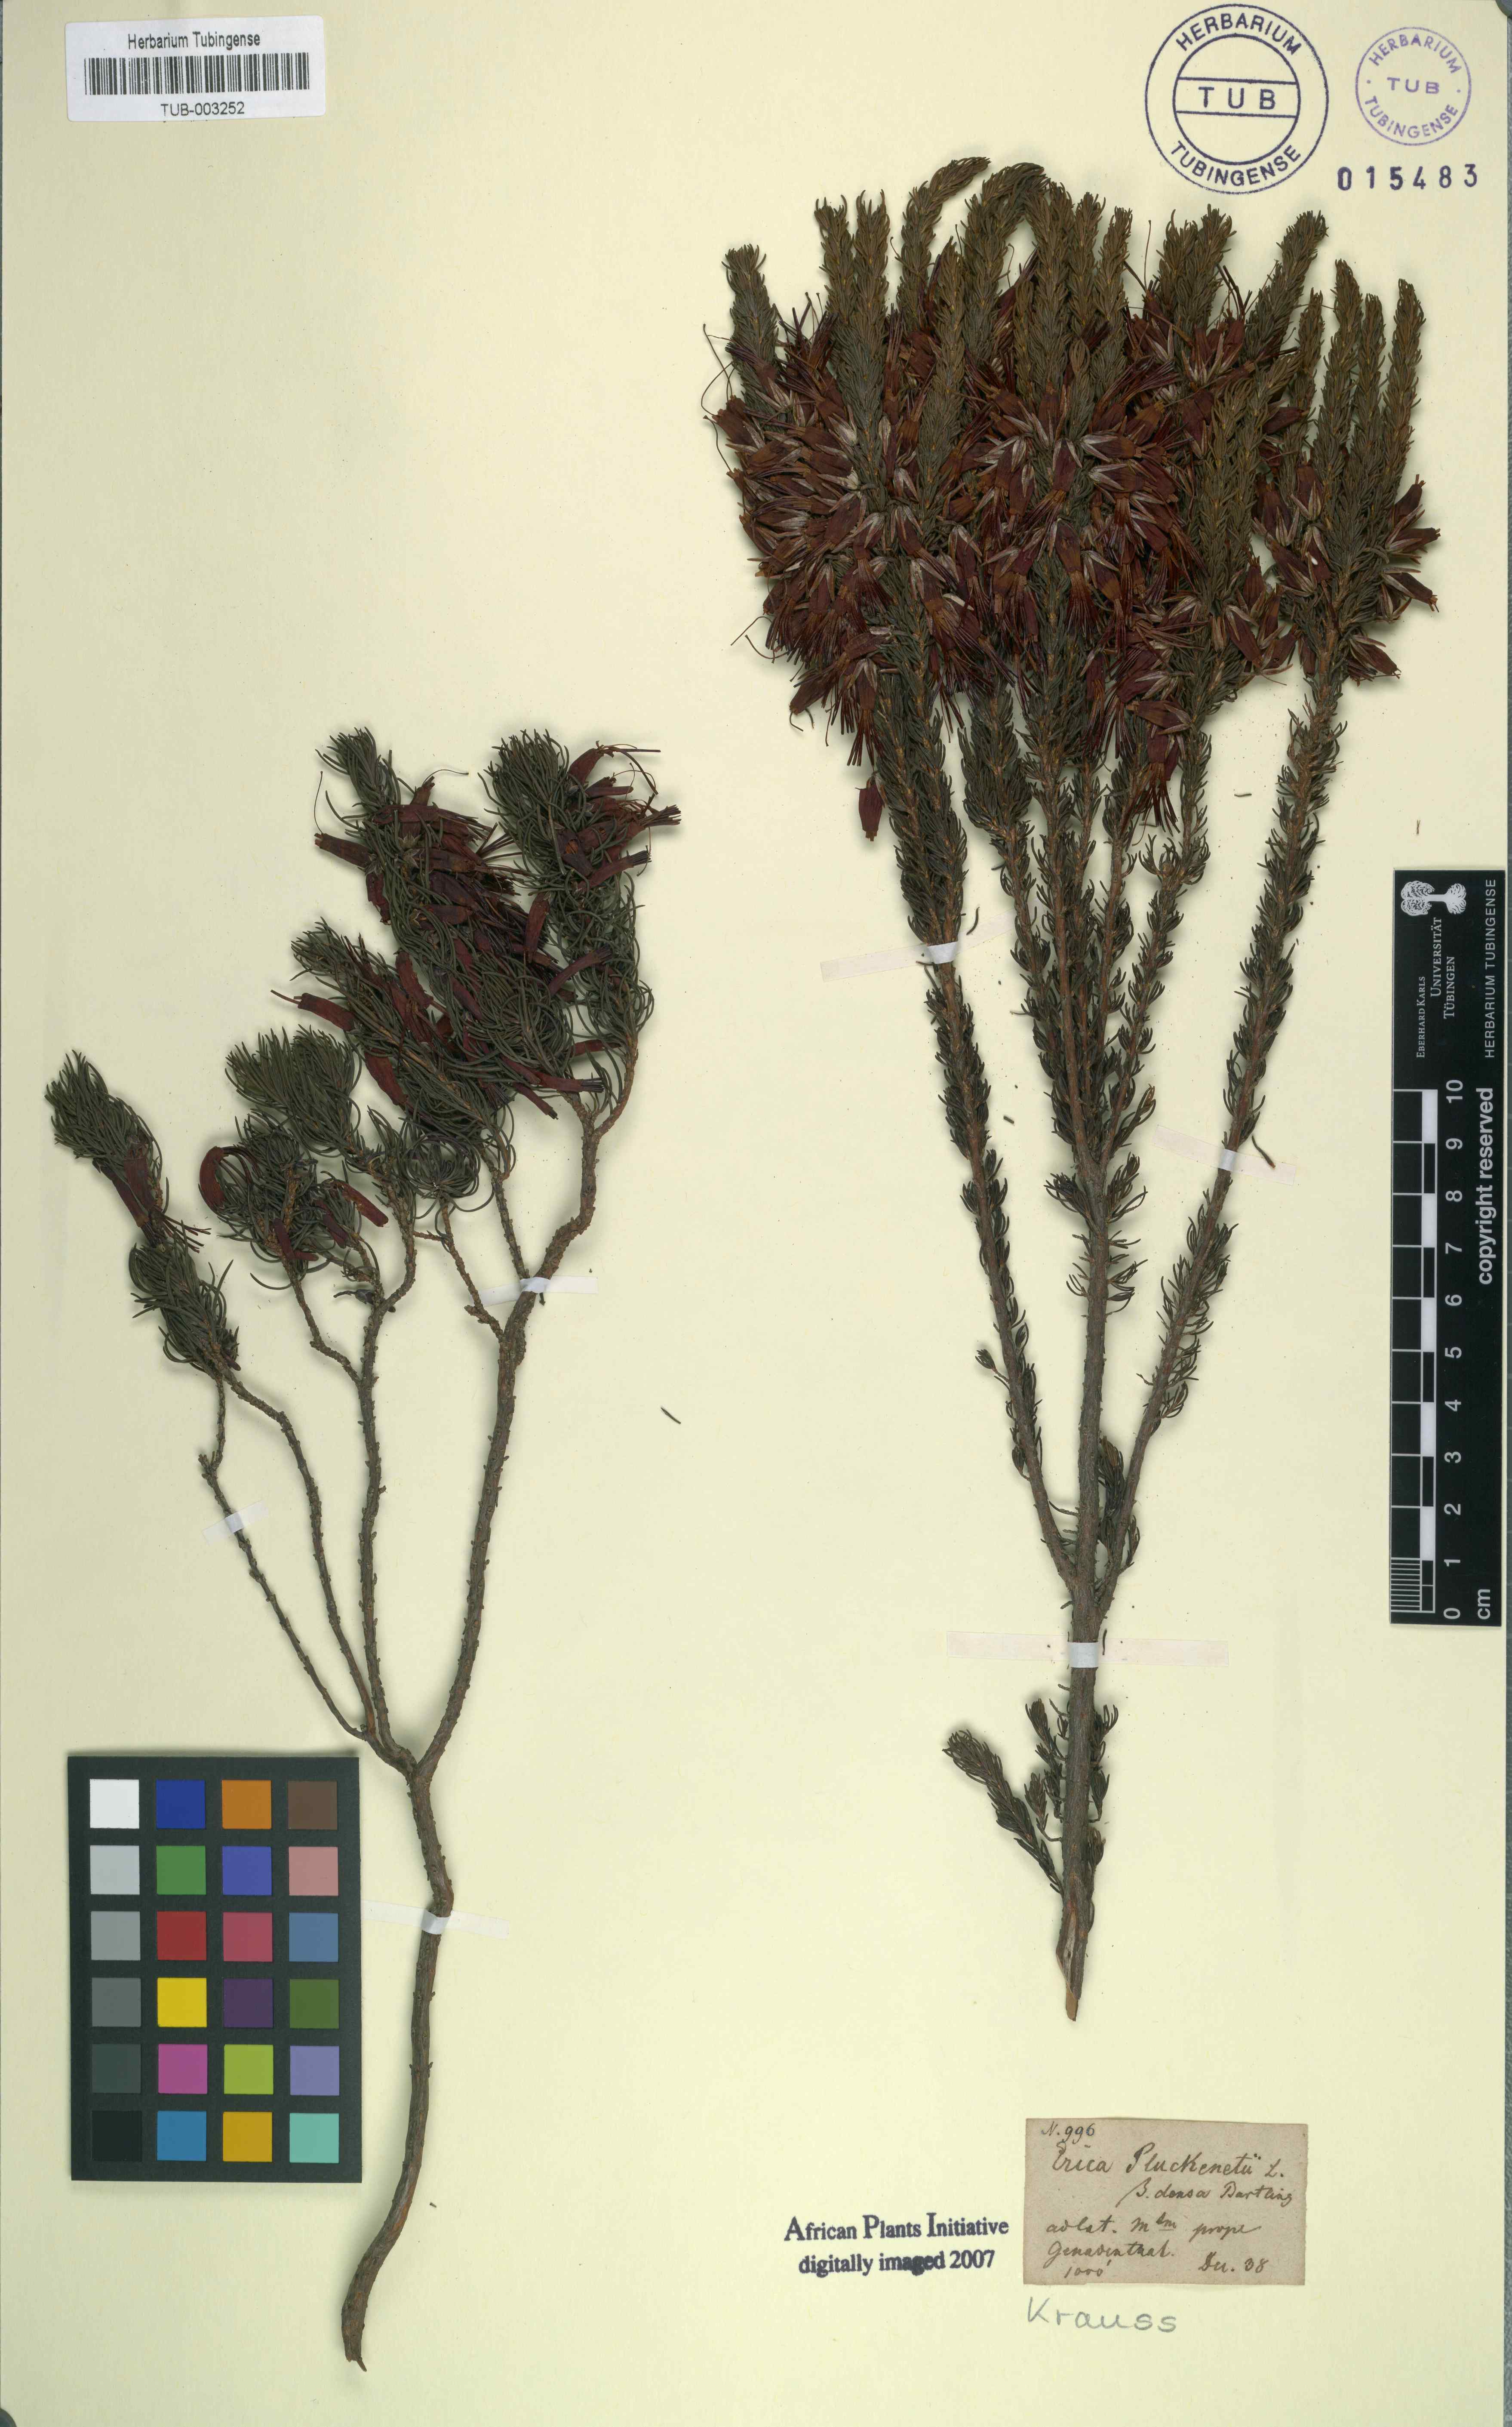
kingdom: Plantae
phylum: Tracheophyta
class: Magnoliopsida
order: Ericales
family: Ericaceae
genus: Erica
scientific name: Erica coccinea
